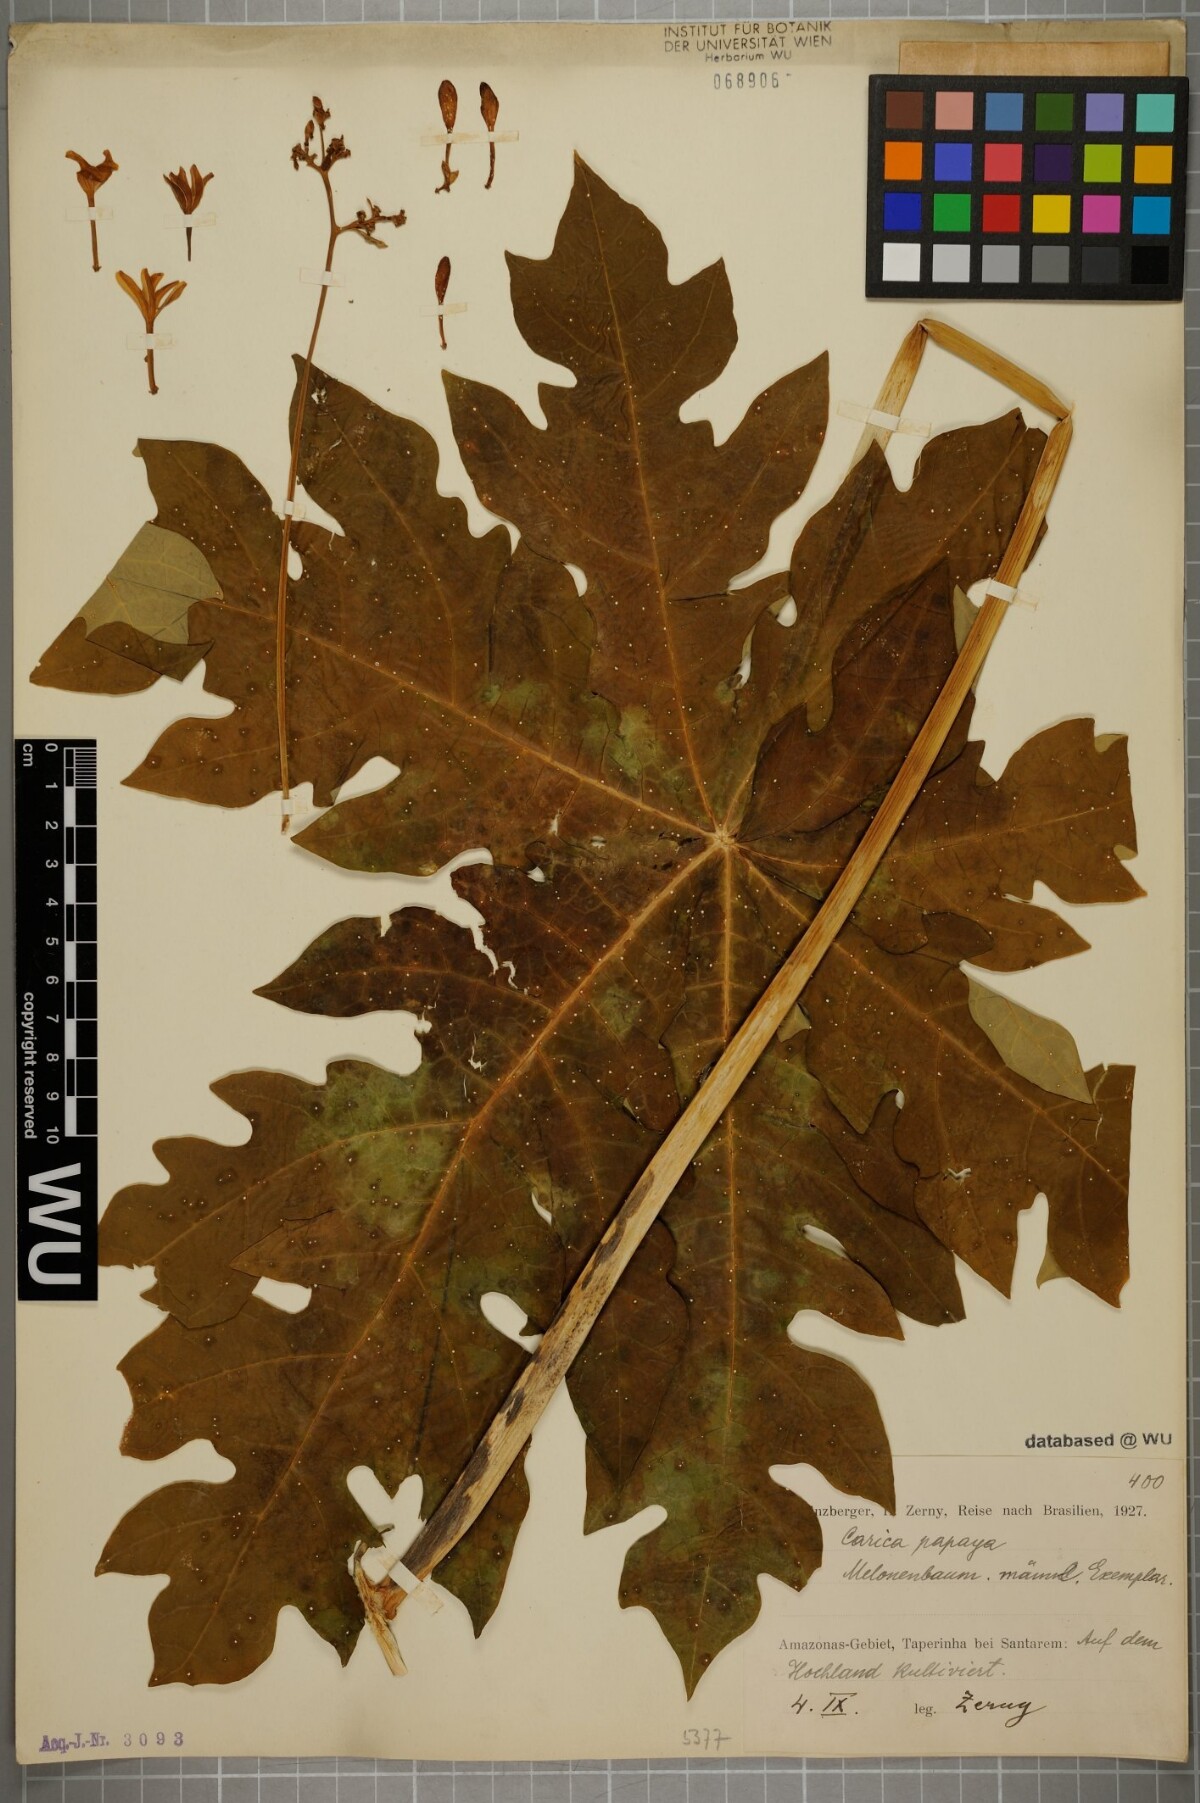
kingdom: Plantae
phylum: Tracheophyta
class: Magnoliopsida
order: Brassicales
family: Caricaceae
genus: Carica
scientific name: Carica papaya
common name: Papaya
